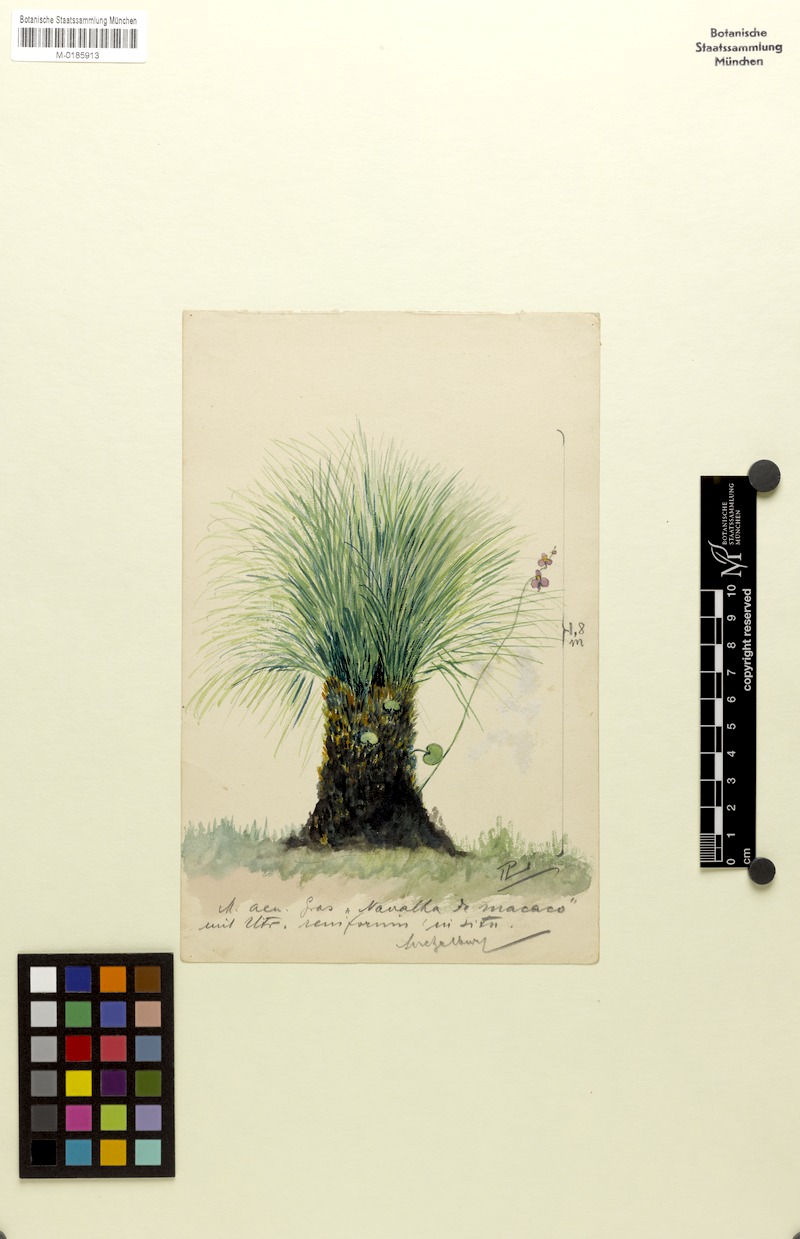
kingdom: Plantae
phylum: Tracheophyta
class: Magnoliopsida
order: Lamiales
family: Lentibulariaceae
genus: Utricularia
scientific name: Utricularia reniformis
